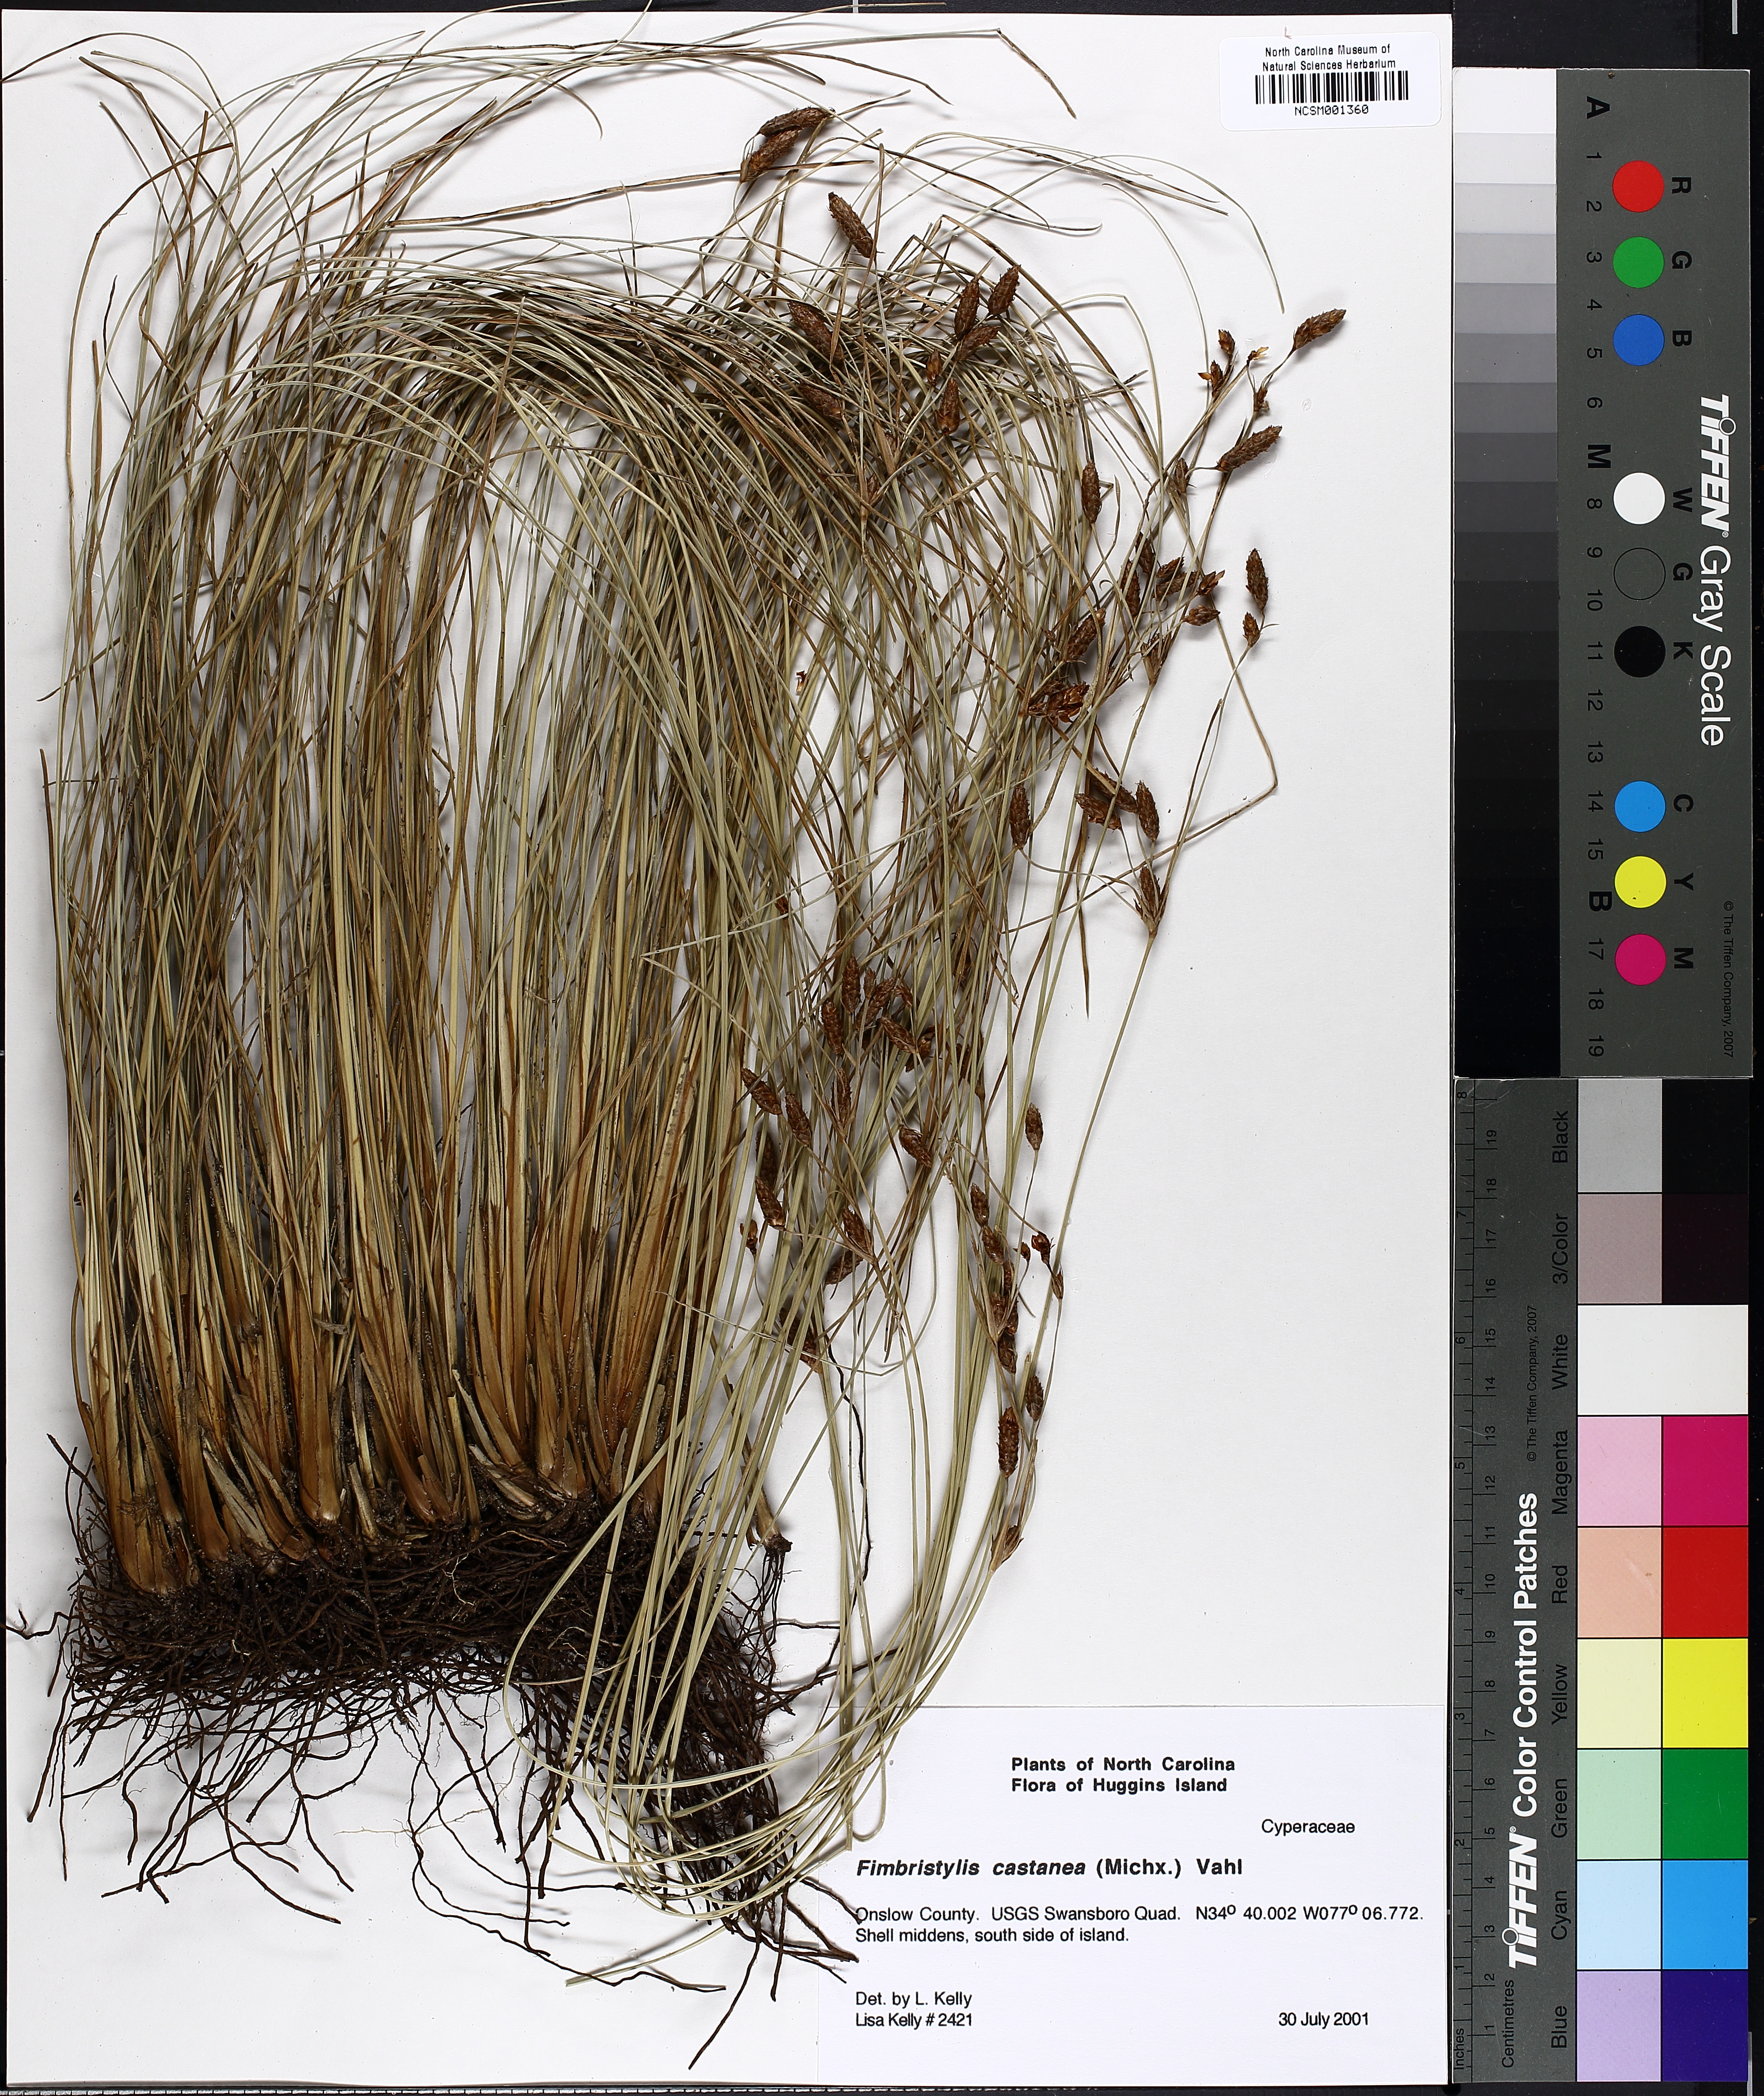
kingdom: Plantae
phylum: Tracheophyta
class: Liliopsida
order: Poales
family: Cyperaceae
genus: Fimbristylis
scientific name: Fimbristylis spadicea
